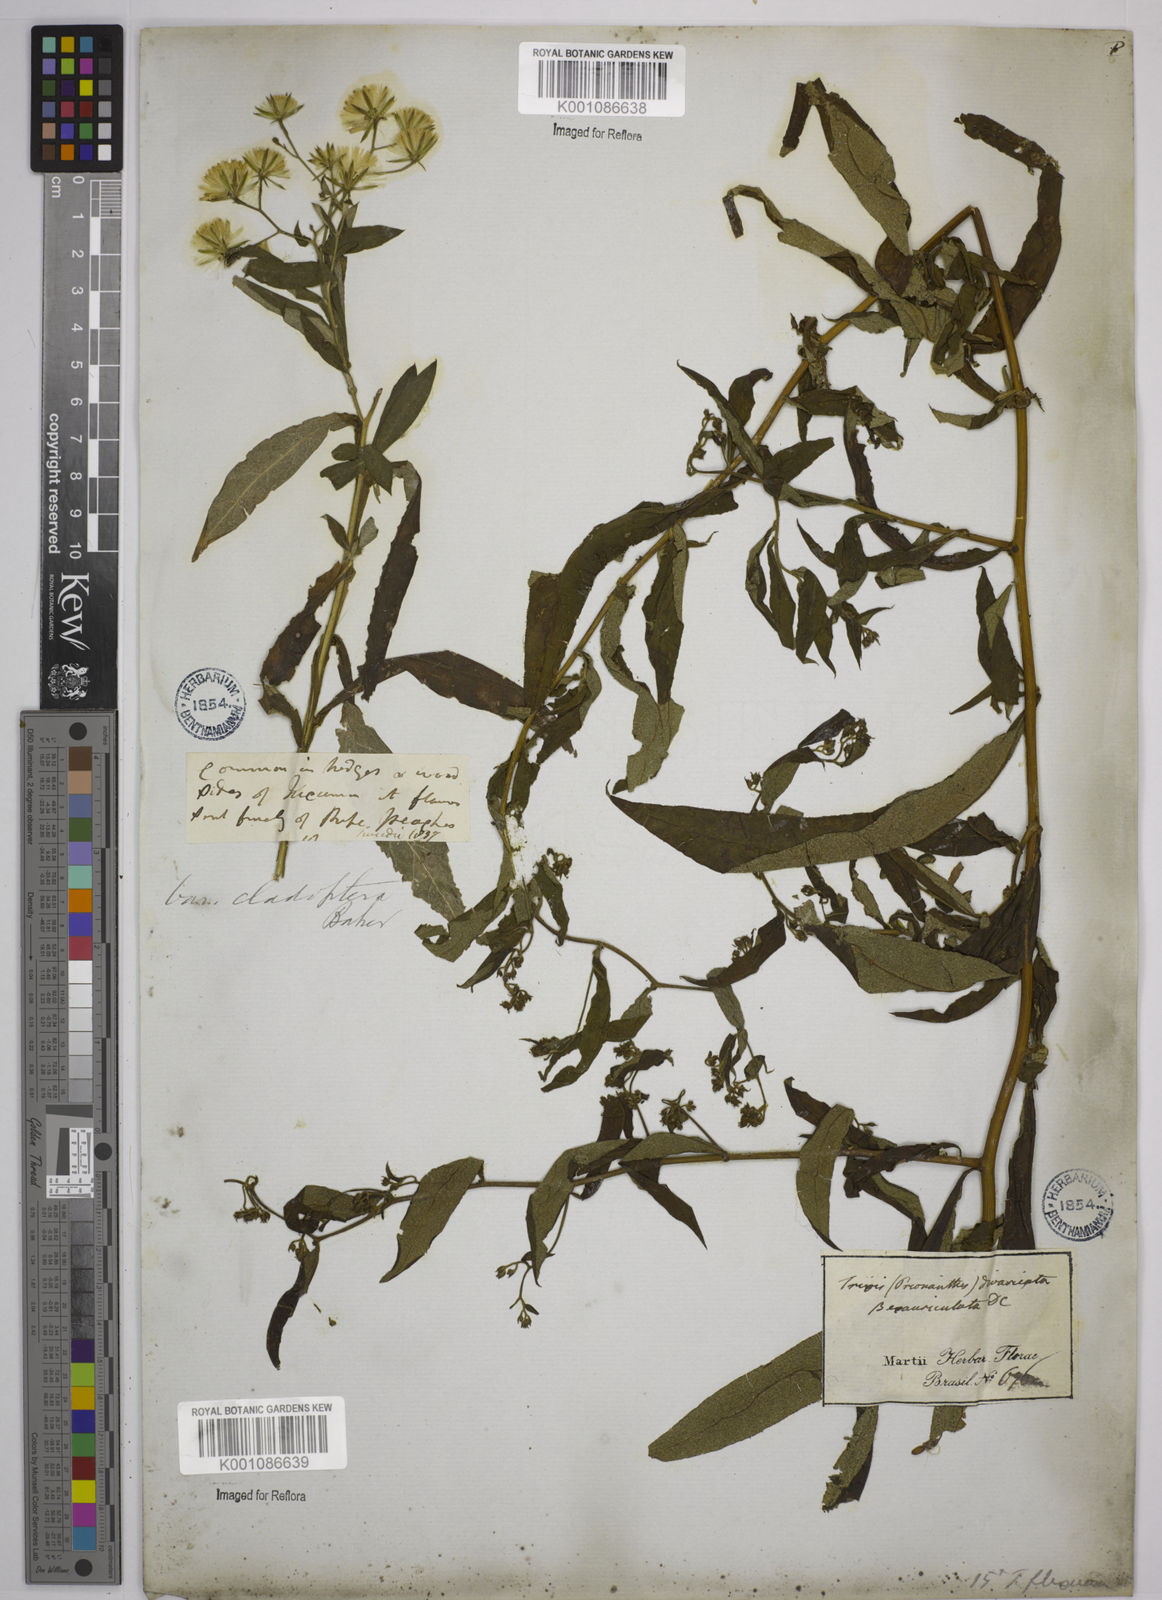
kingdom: Plantae
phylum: Tracheophyta
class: Magnoliopsida
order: Asterales
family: Asteraceae
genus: Trixis
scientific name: Trixis divaricata
